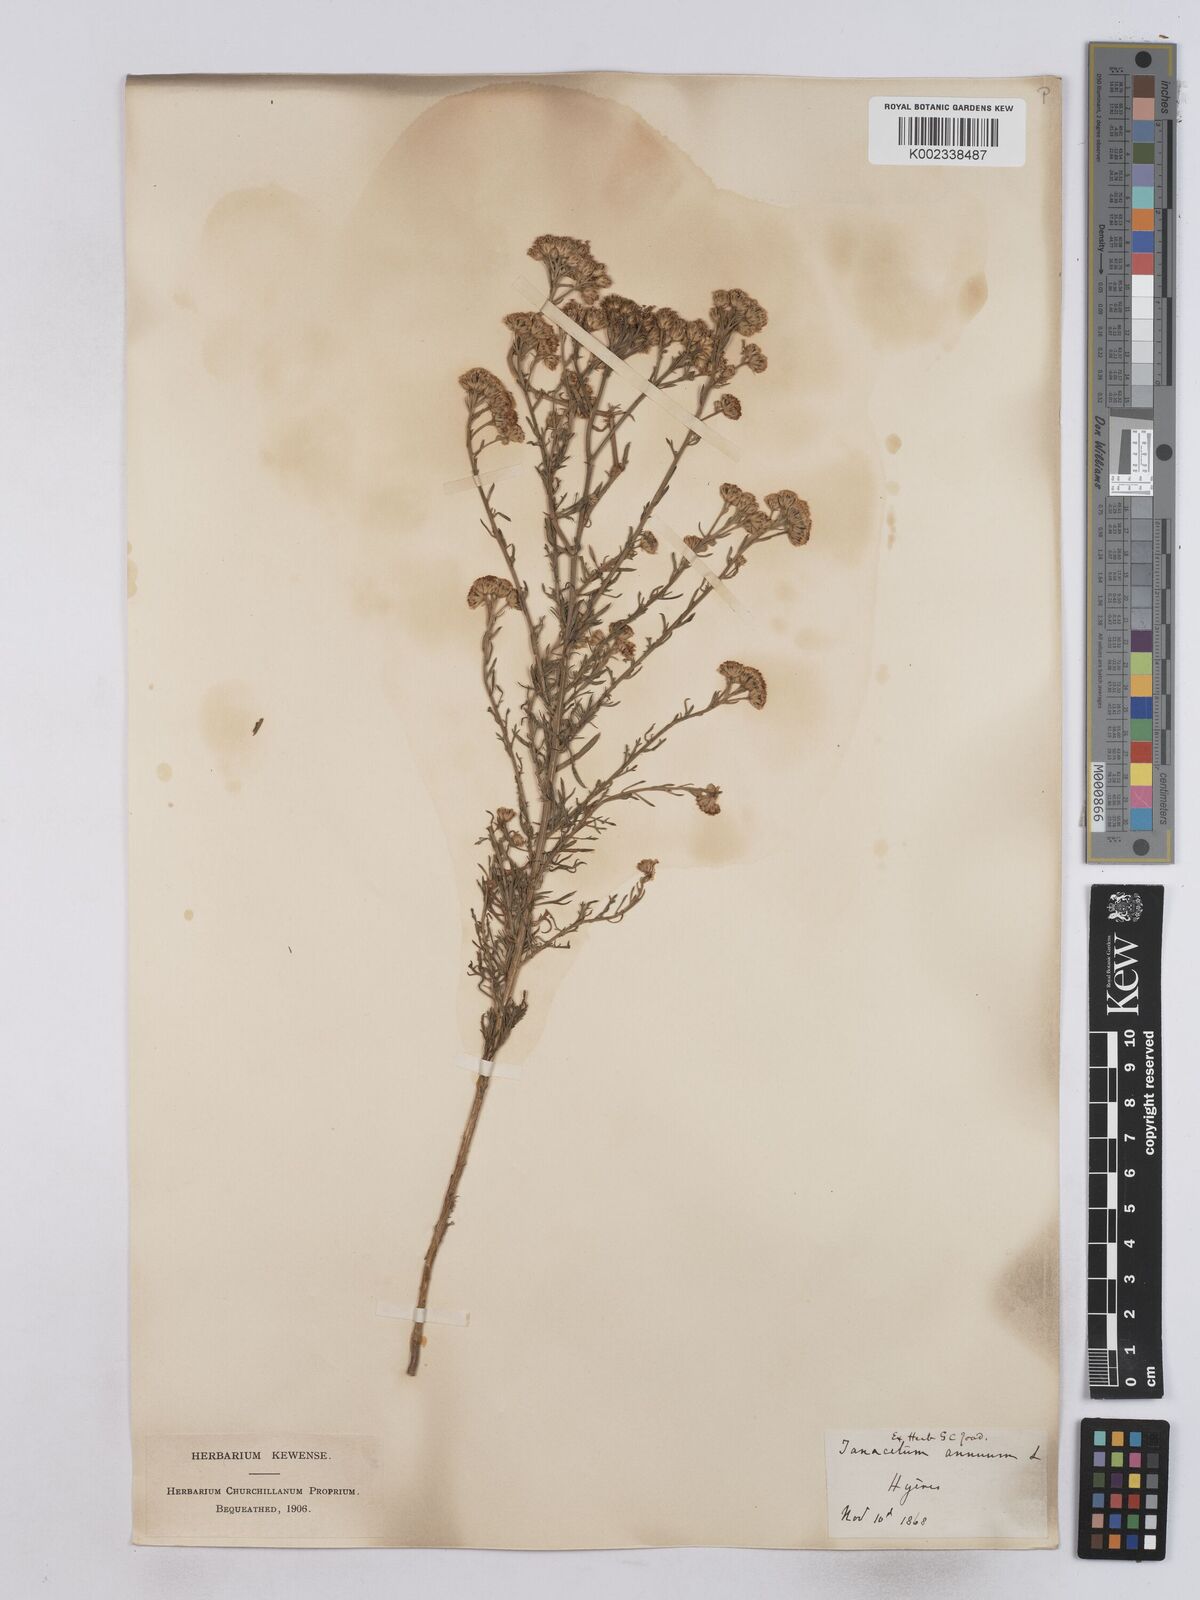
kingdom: Plantae
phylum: Tracheophyta
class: Magnoliopsida
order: Asterales
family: Asteraceae
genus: Vogtia
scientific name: Vogtia annua
